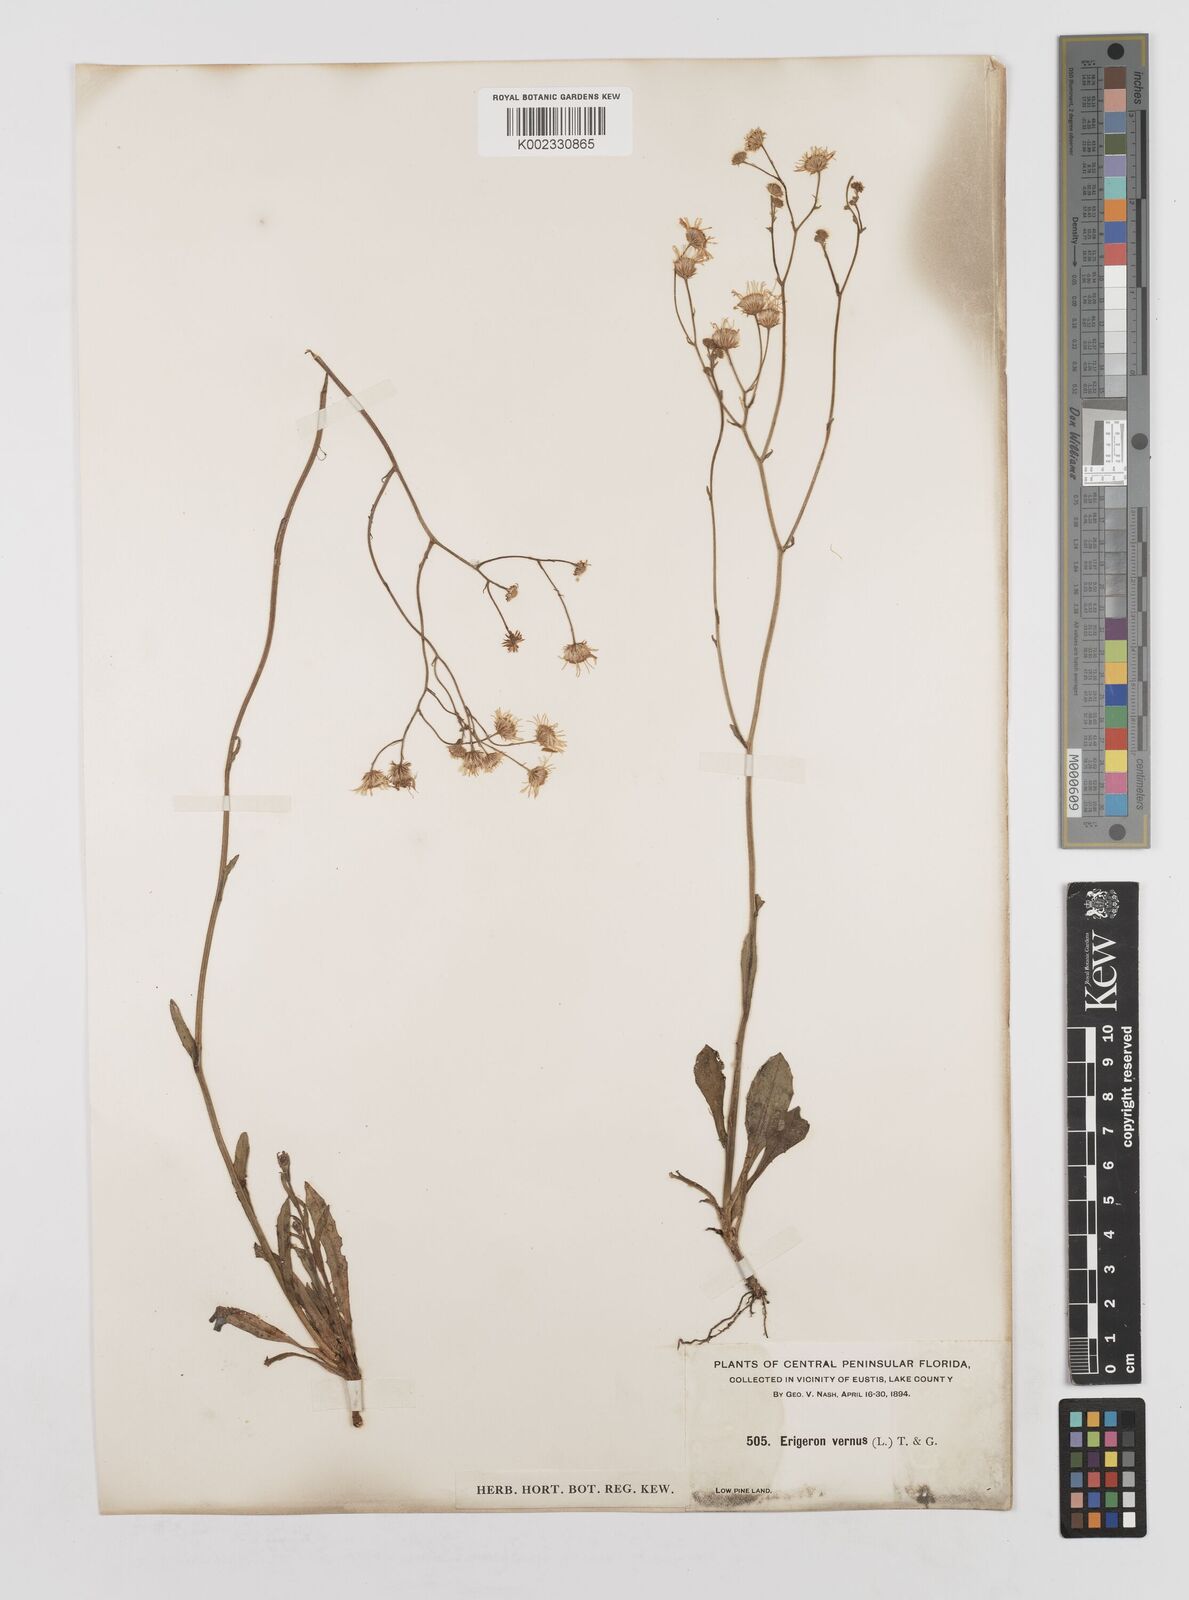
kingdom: Plantae
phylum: Tracheophyta
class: Magnoliopsida
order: Asterales
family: Asteraceae
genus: Erigeron
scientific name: Erigeron vernus
